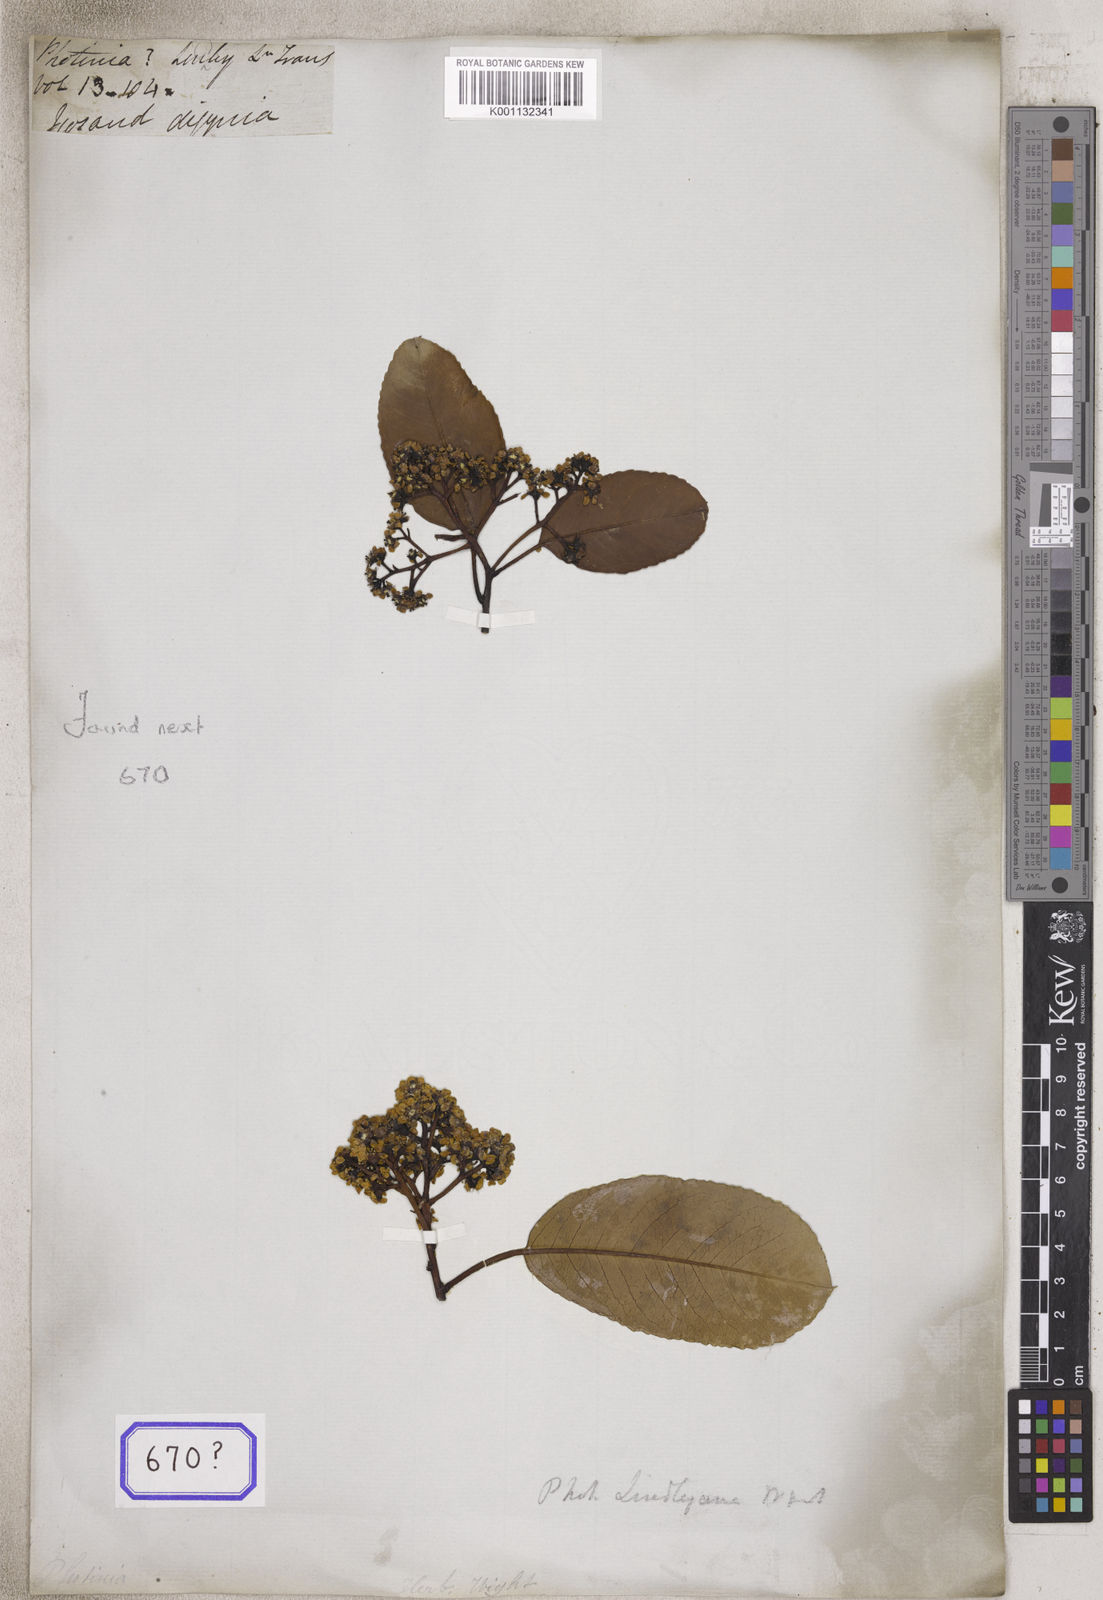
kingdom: Plantae
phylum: Tracheophyta
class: Magnoliopsida
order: Rosales
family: Rosaceae
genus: Photinia
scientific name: Photinia
